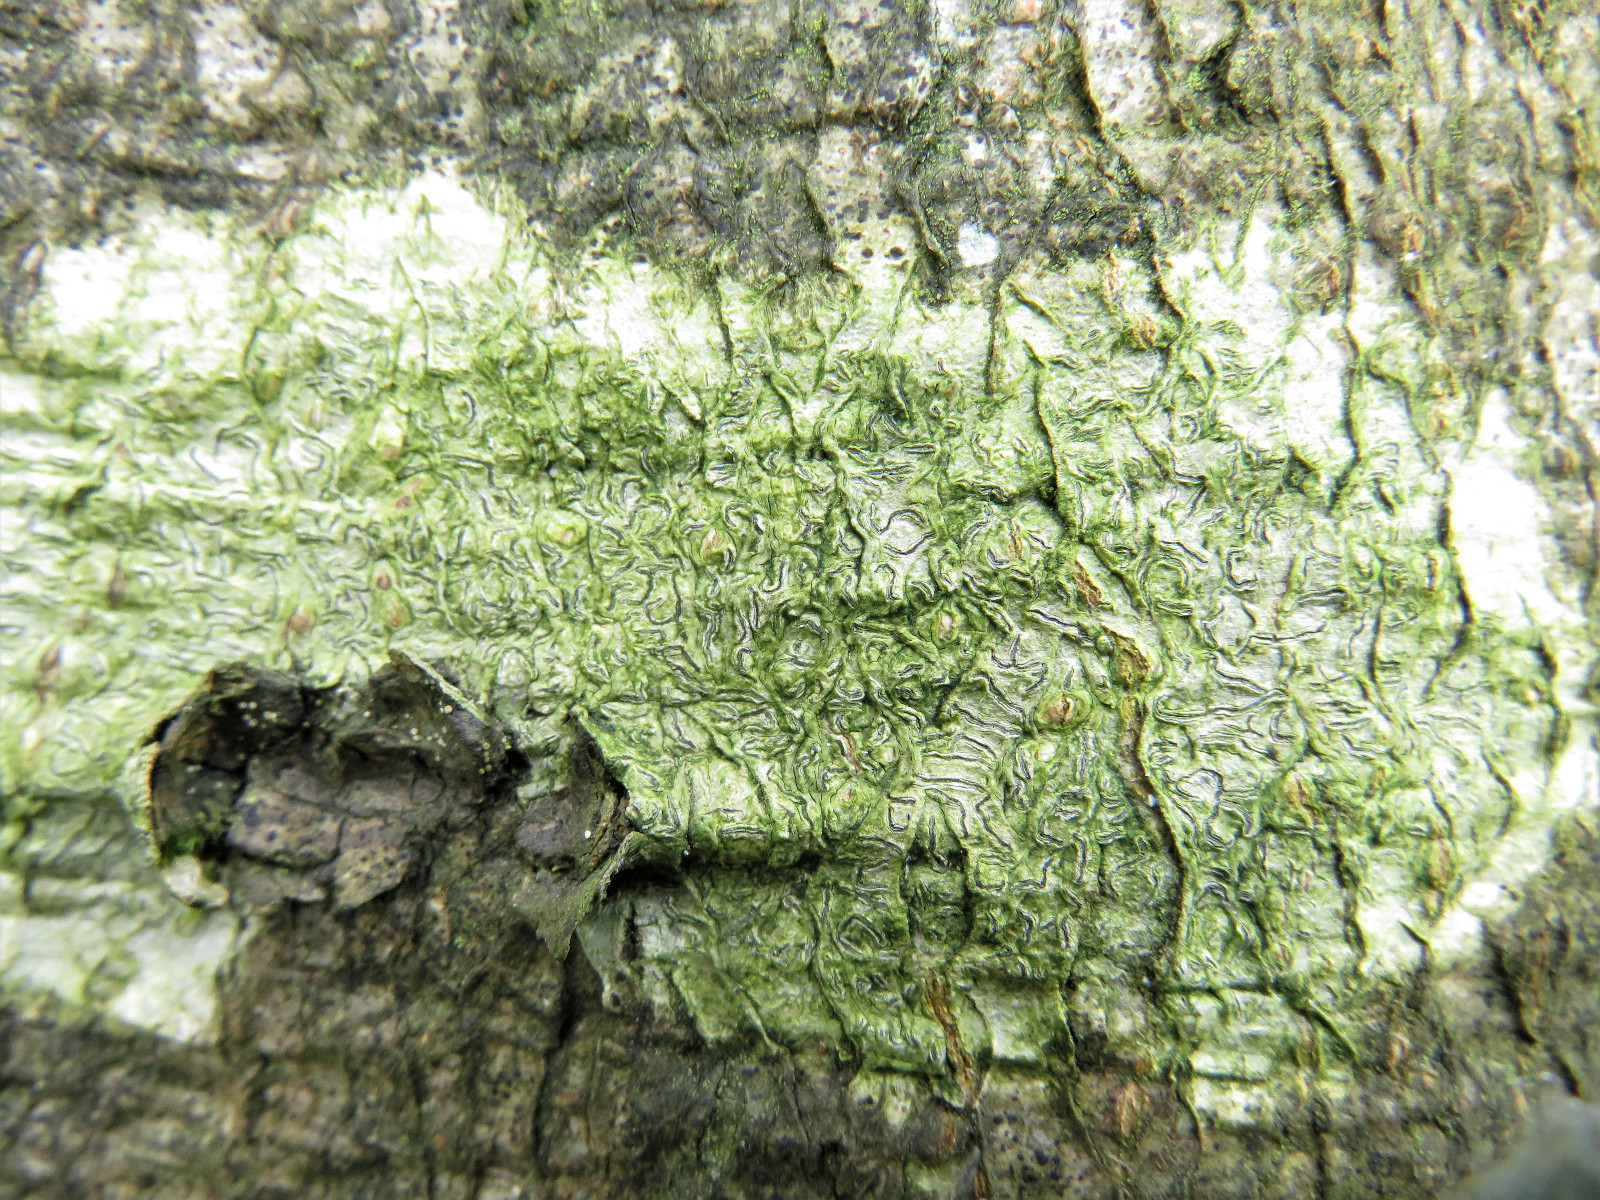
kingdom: Fungi
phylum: Ascomycota
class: Lecanoromycetes
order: Ostropales
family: Graphidaceae
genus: Graphis
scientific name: Graphis scripta
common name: almindelig skriftlav
